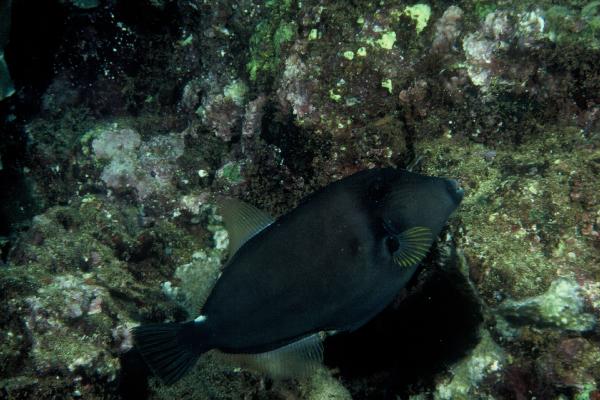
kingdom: Animalia
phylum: Chordata
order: Tetraodontiformes
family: Monacanthidae
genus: Cantherhines
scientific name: Cantherhines sandwichiensis
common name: Sandwich isle file
